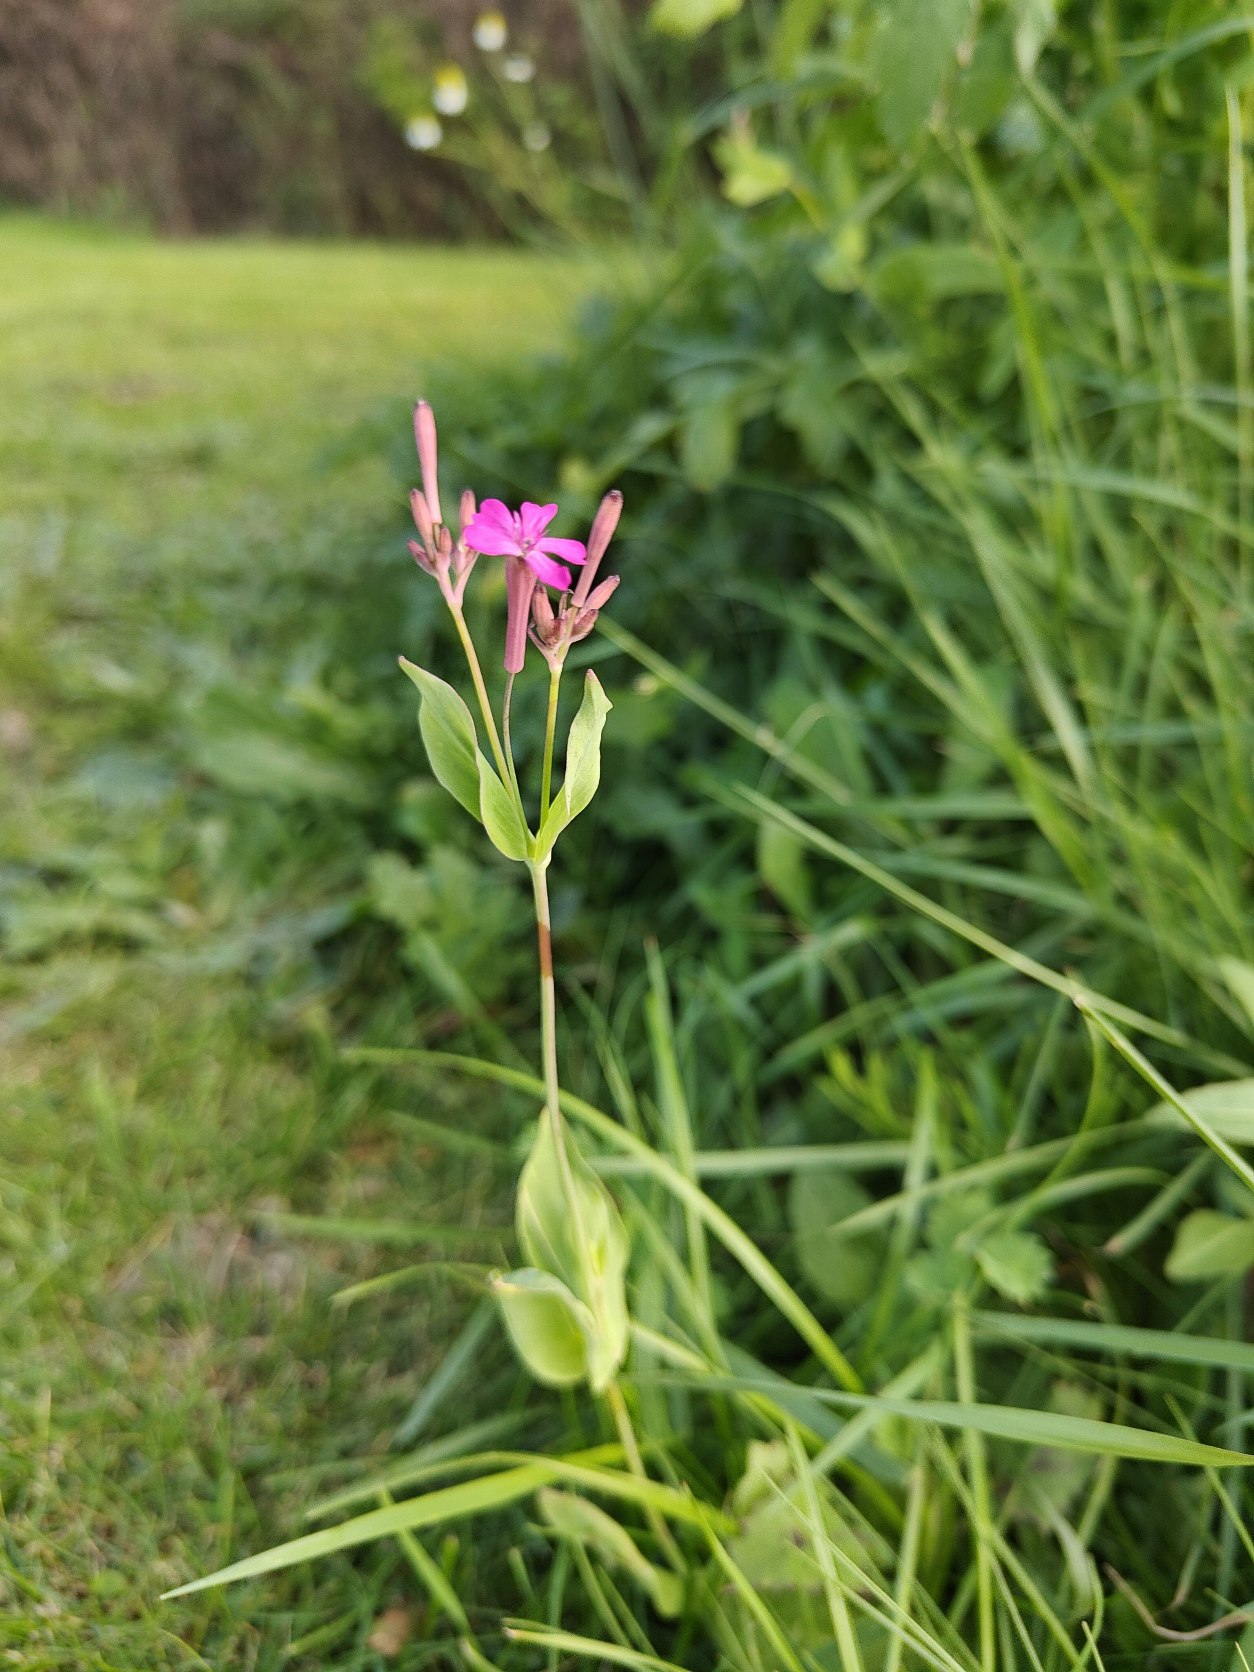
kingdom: Plantae
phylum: Tracheophyta
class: Magnoliopsida
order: Caryophyllales
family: Caryophyllaceae
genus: Atocion
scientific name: Atocion armeria
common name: Knippe-limurt
